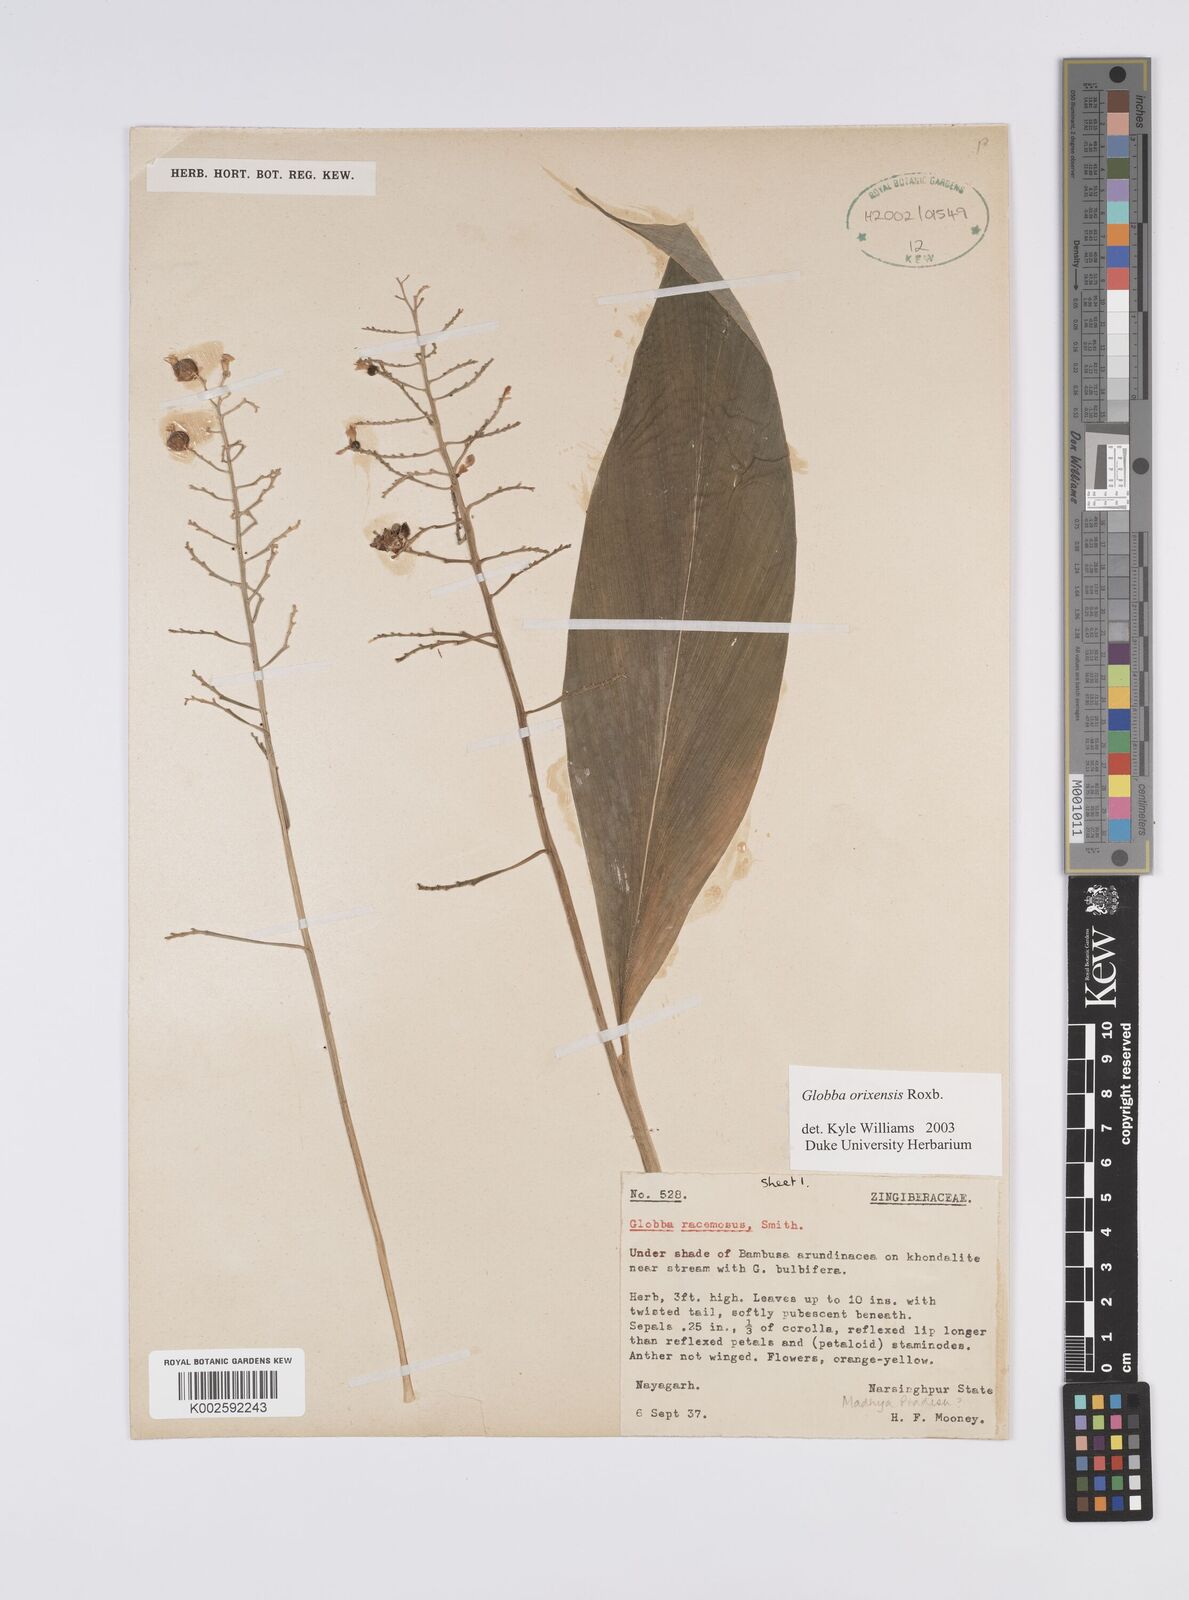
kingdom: Plantae
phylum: Tracheophyta
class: Liliopsida
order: Zingiberales
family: Zingiberaceae
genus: Globba
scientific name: Globba orixensis
